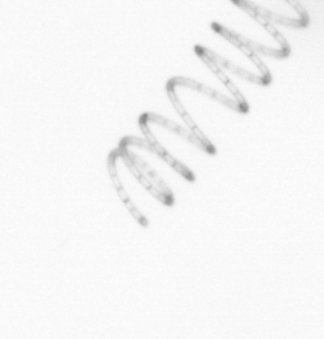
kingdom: Chromista
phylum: Ochrophyta
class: Bacillariophyceae
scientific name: Bacillariophyceae
